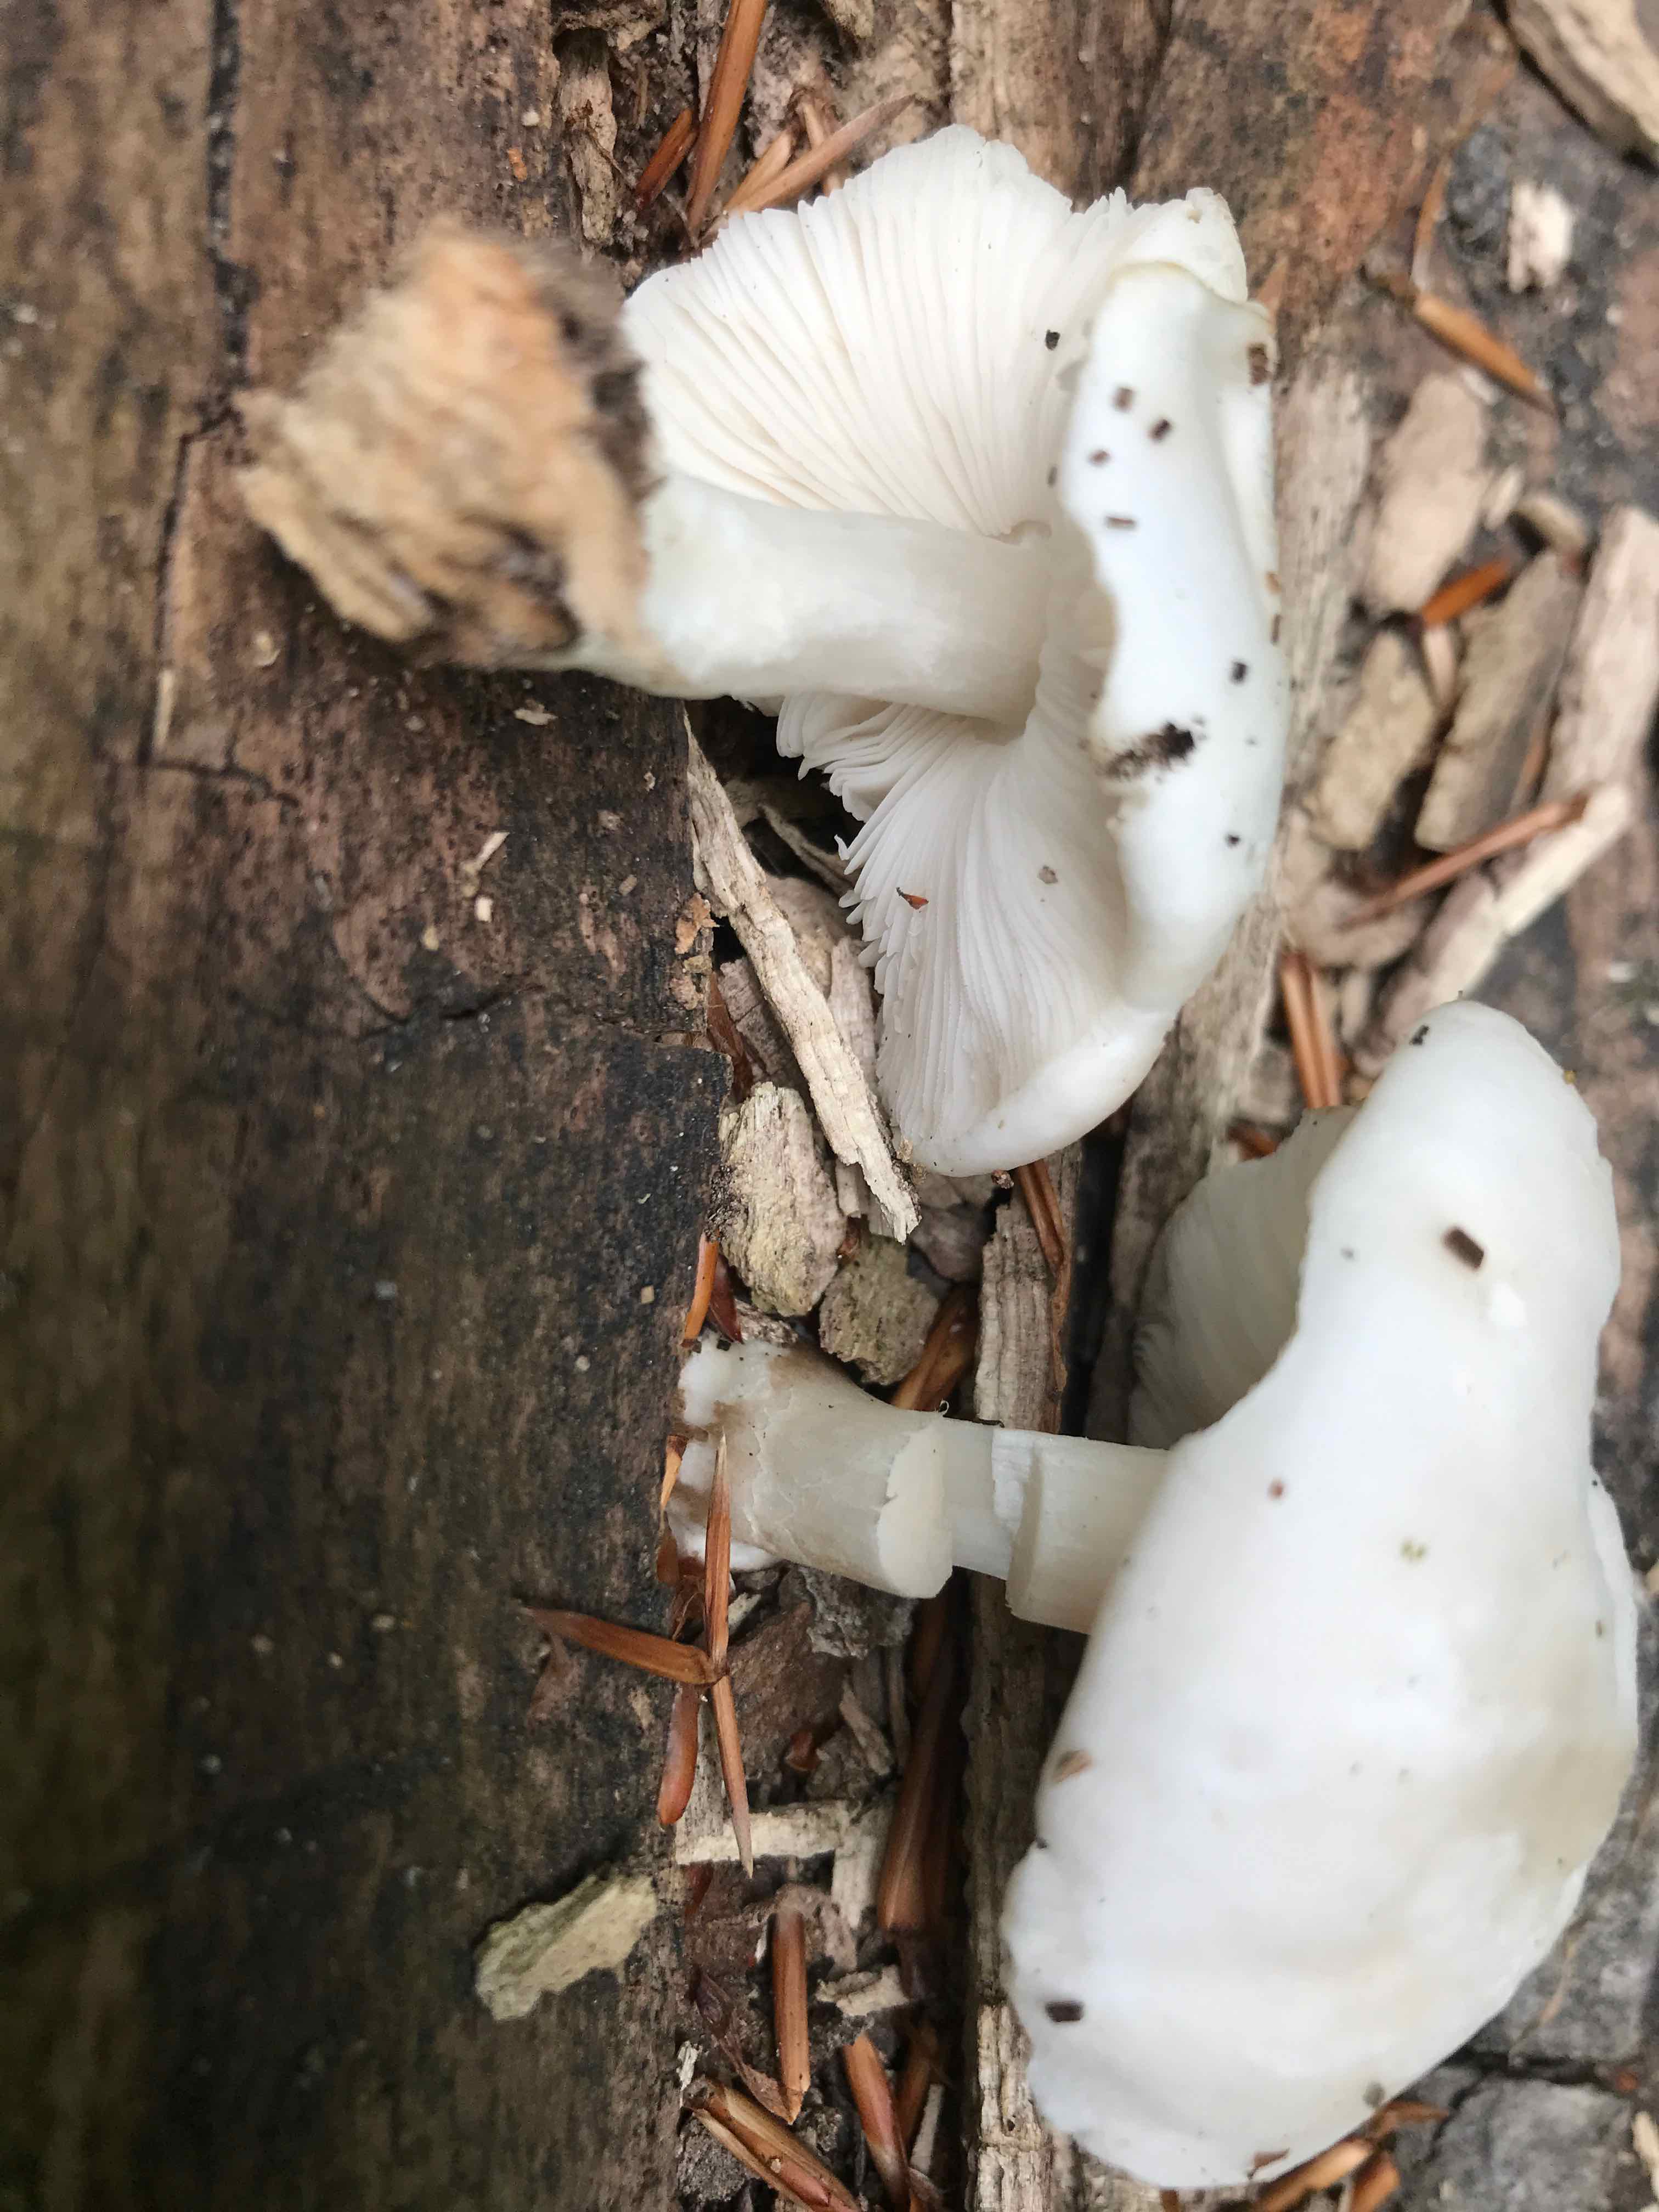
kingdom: Fungi
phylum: Basidiomycota
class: Agaricomycetes
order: Agaricales
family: Pluteaceae
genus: Pluteus
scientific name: Pluteus petasatus
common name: savsmulds-skærmhat
